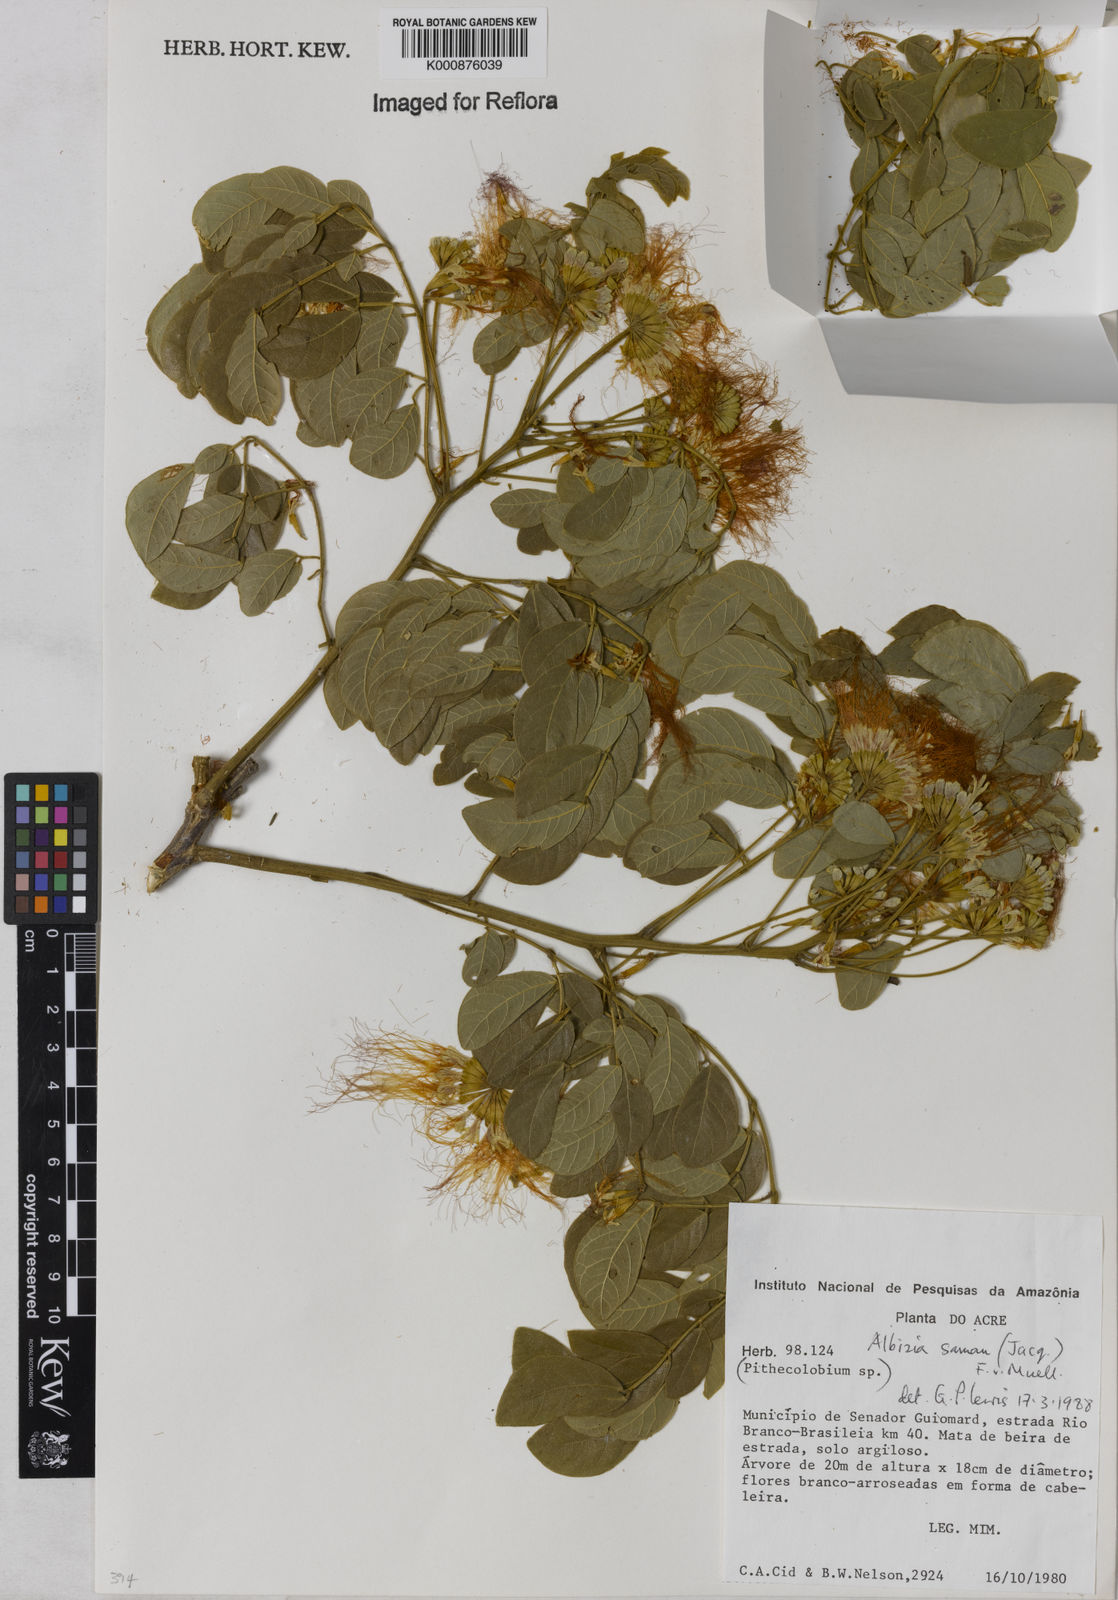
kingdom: Plantae
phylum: Tracheophyta
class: Magnoliopsida
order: Fabales
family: Fabaceae
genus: Samanea
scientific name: Samanea saman
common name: Raintree
